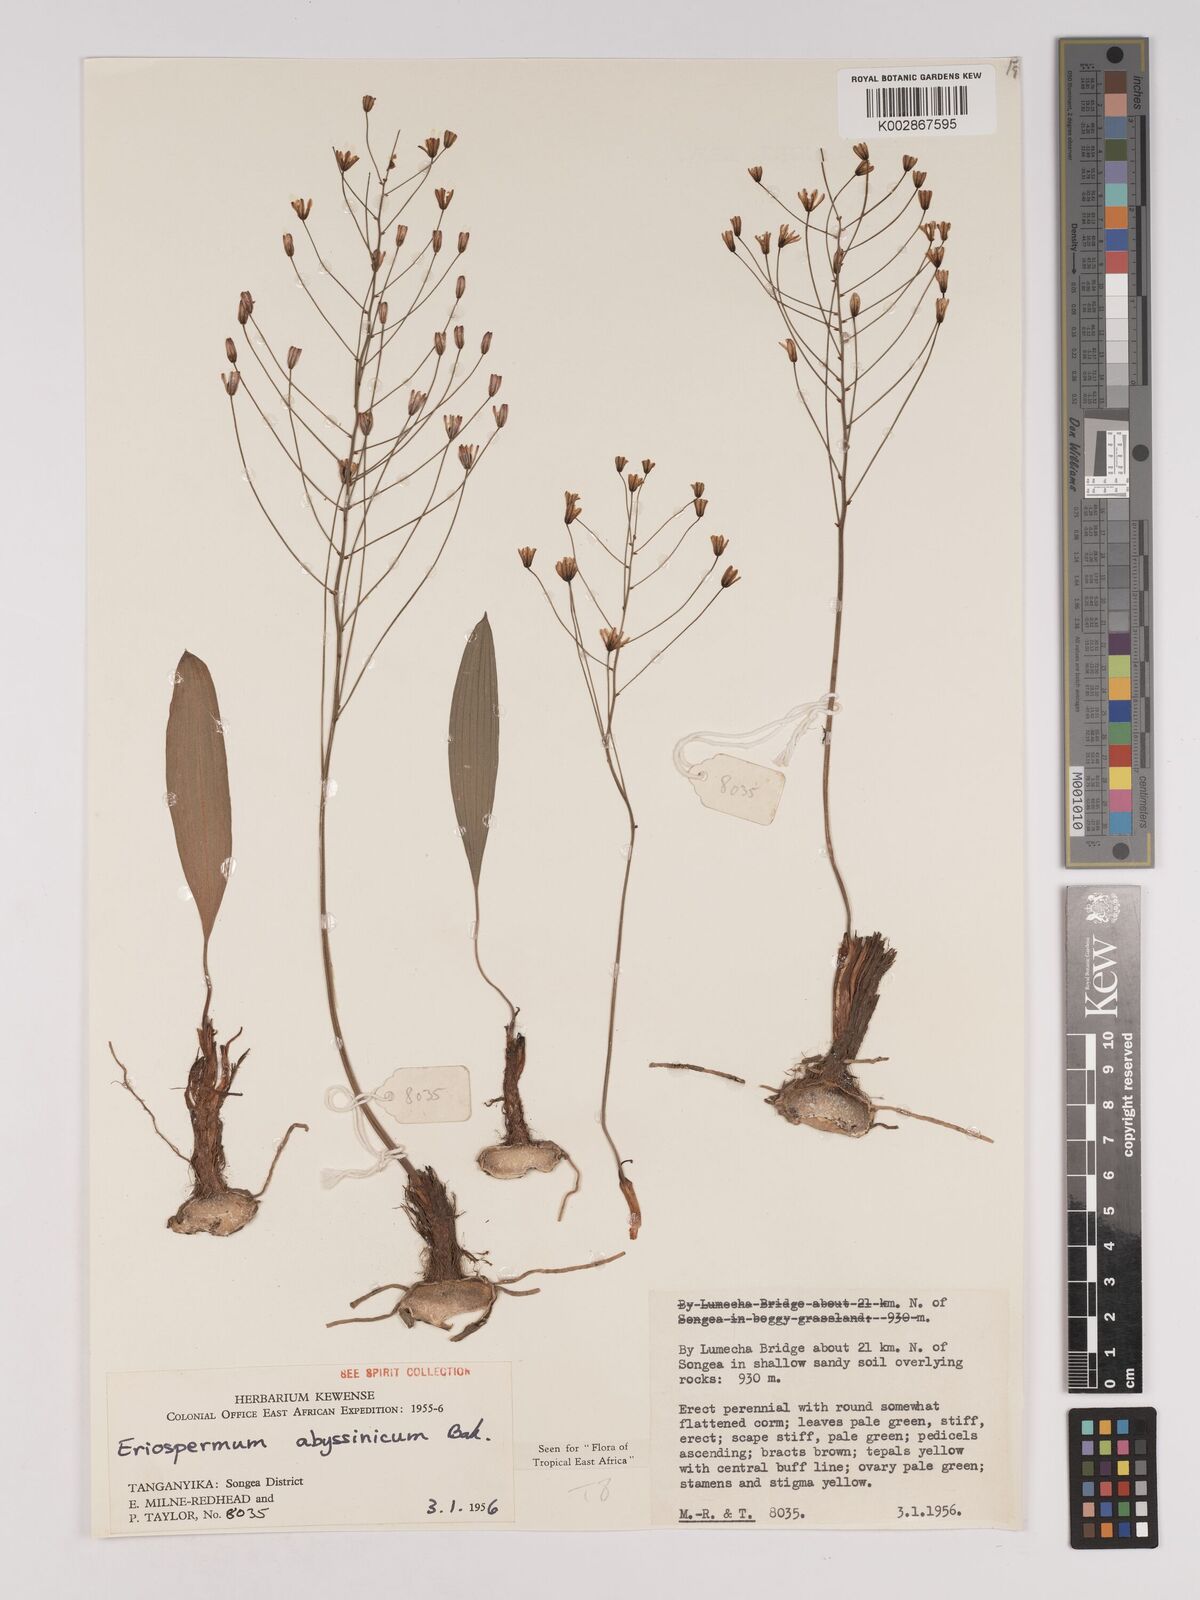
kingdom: Plantae
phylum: Tracheophyta
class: Liliopsida
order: Asparagales
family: Asparagaceae
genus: Eriospermum
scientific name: Eriospermum abyssinicum
